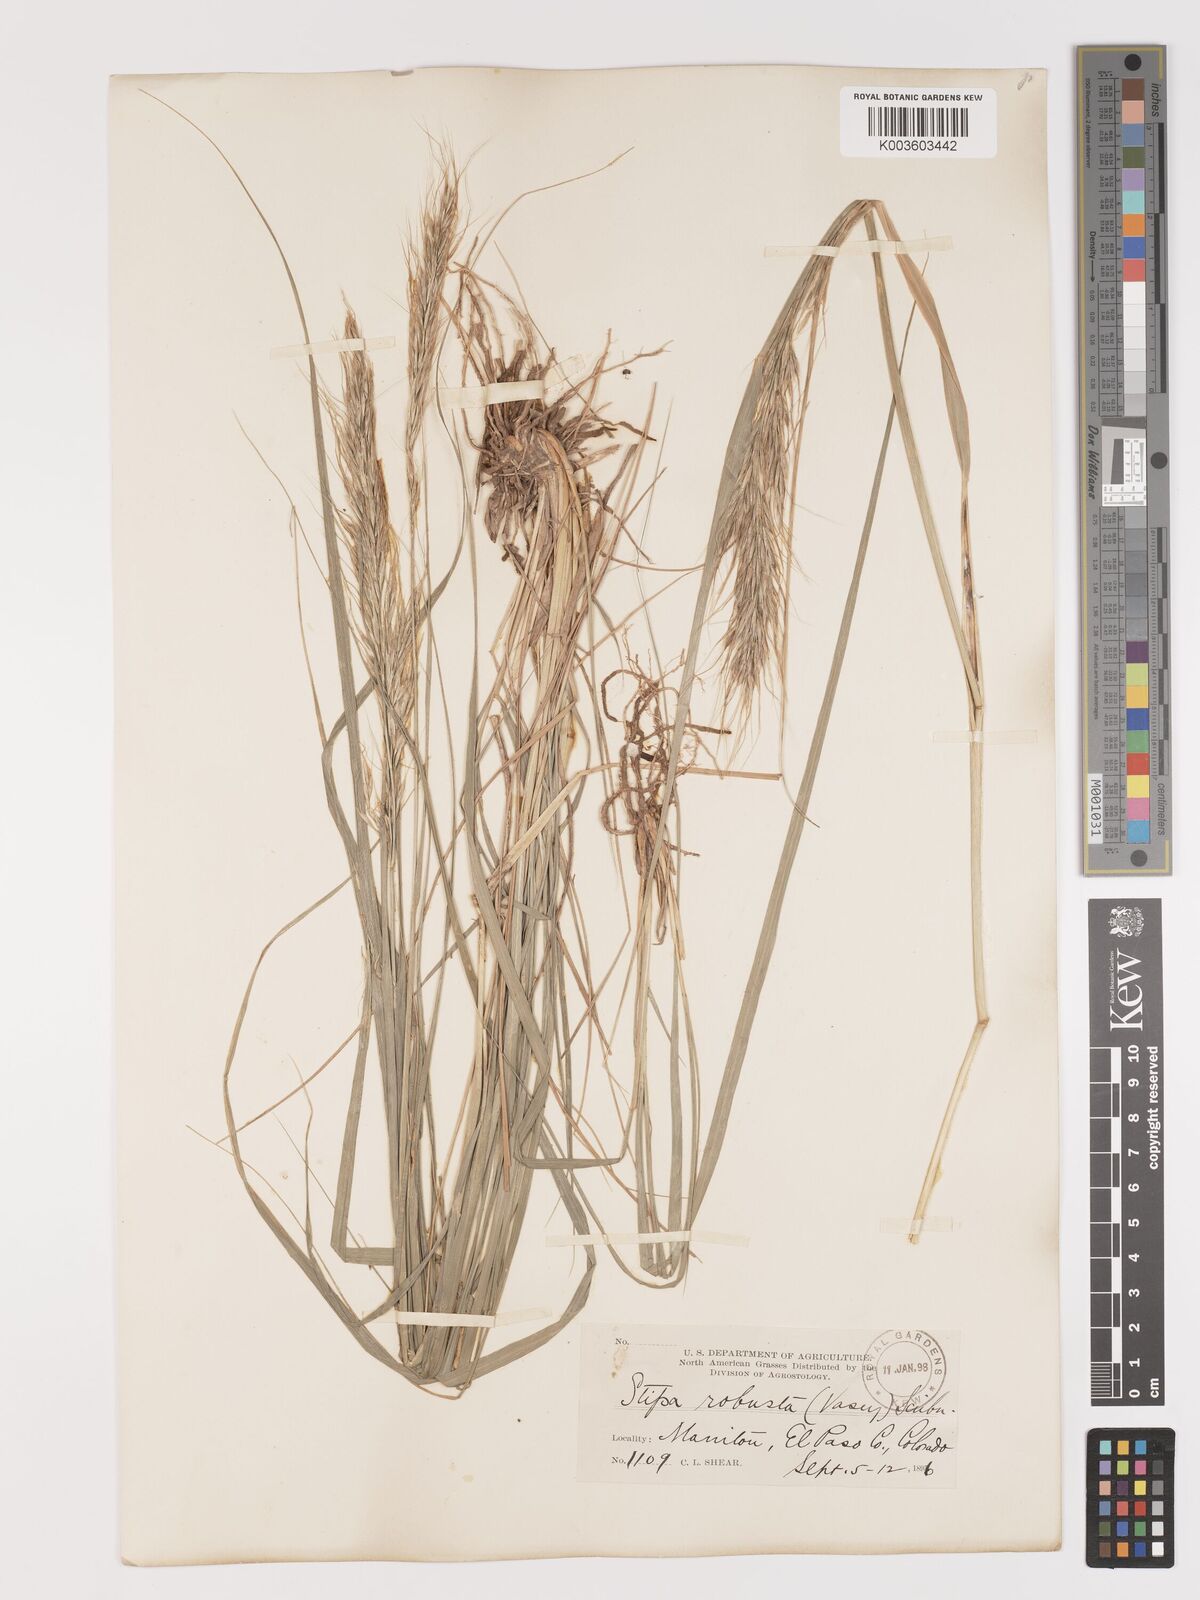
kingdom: Plantae
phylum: Tracheophyta
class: Liliopsida
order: Poales
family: Poaceae
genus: Eriocoma
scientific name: Eriocoma robusta
